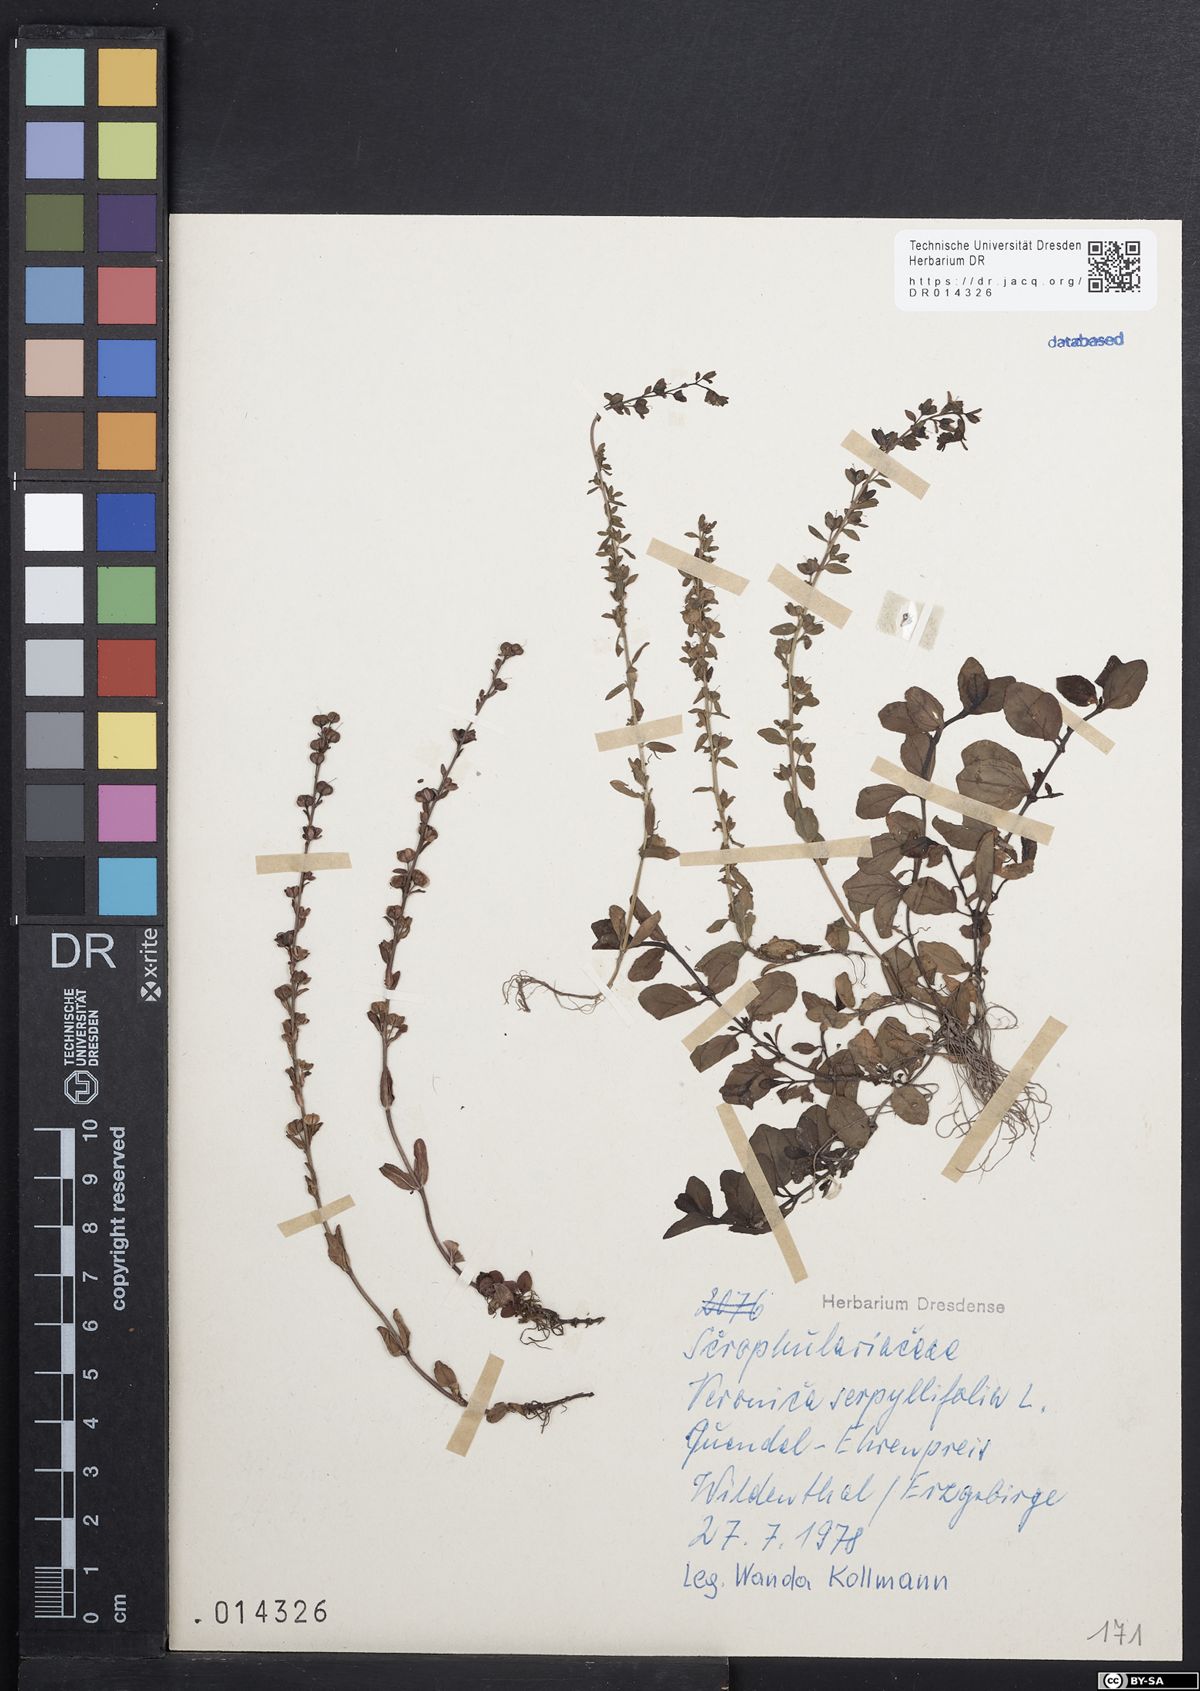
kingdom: Plantae
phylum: Tracheophyta
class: Magnoliopsida
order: Lamiales
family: Plantaginaceae
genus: Veronica
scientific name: Veronica serpyllifolia
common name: Thyme-leaved speedwell
